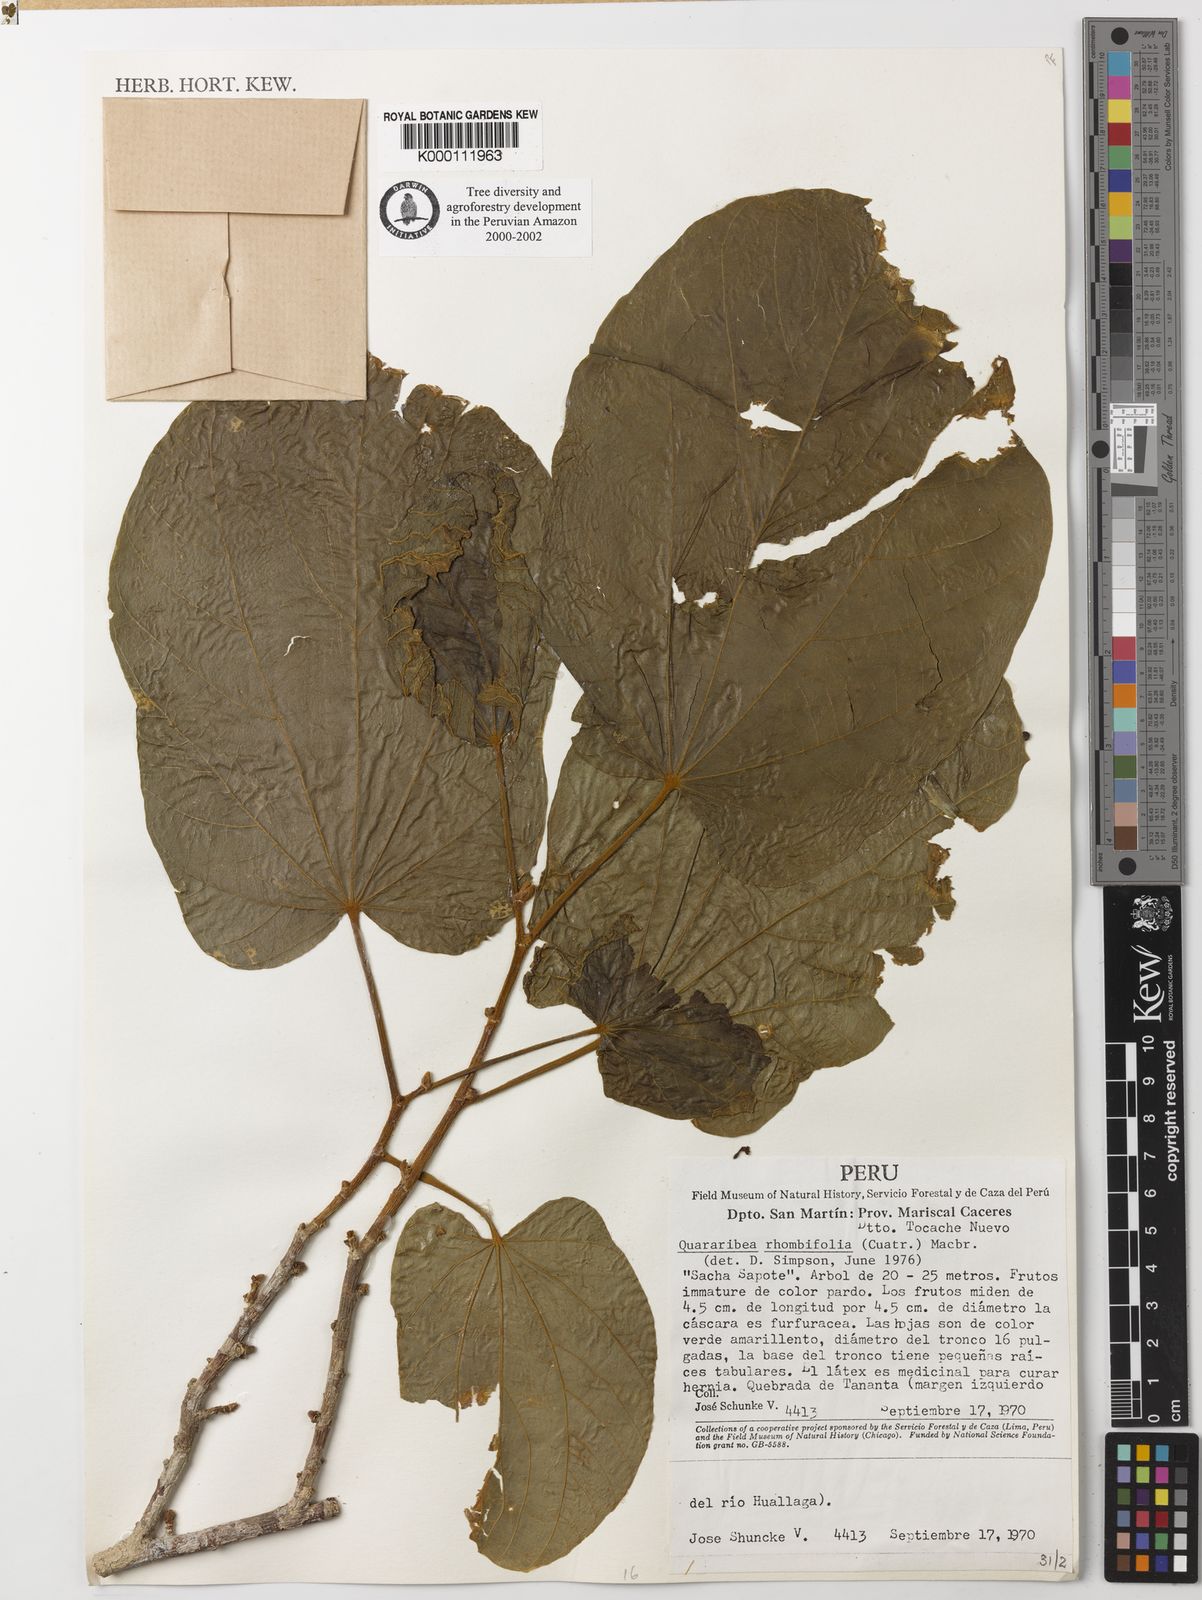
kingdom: Plantae
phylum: Tracheophyta
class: Magnoliopsida
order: Malvales
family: Malvaceae
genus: Matisia
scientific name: Matisia bicolor
